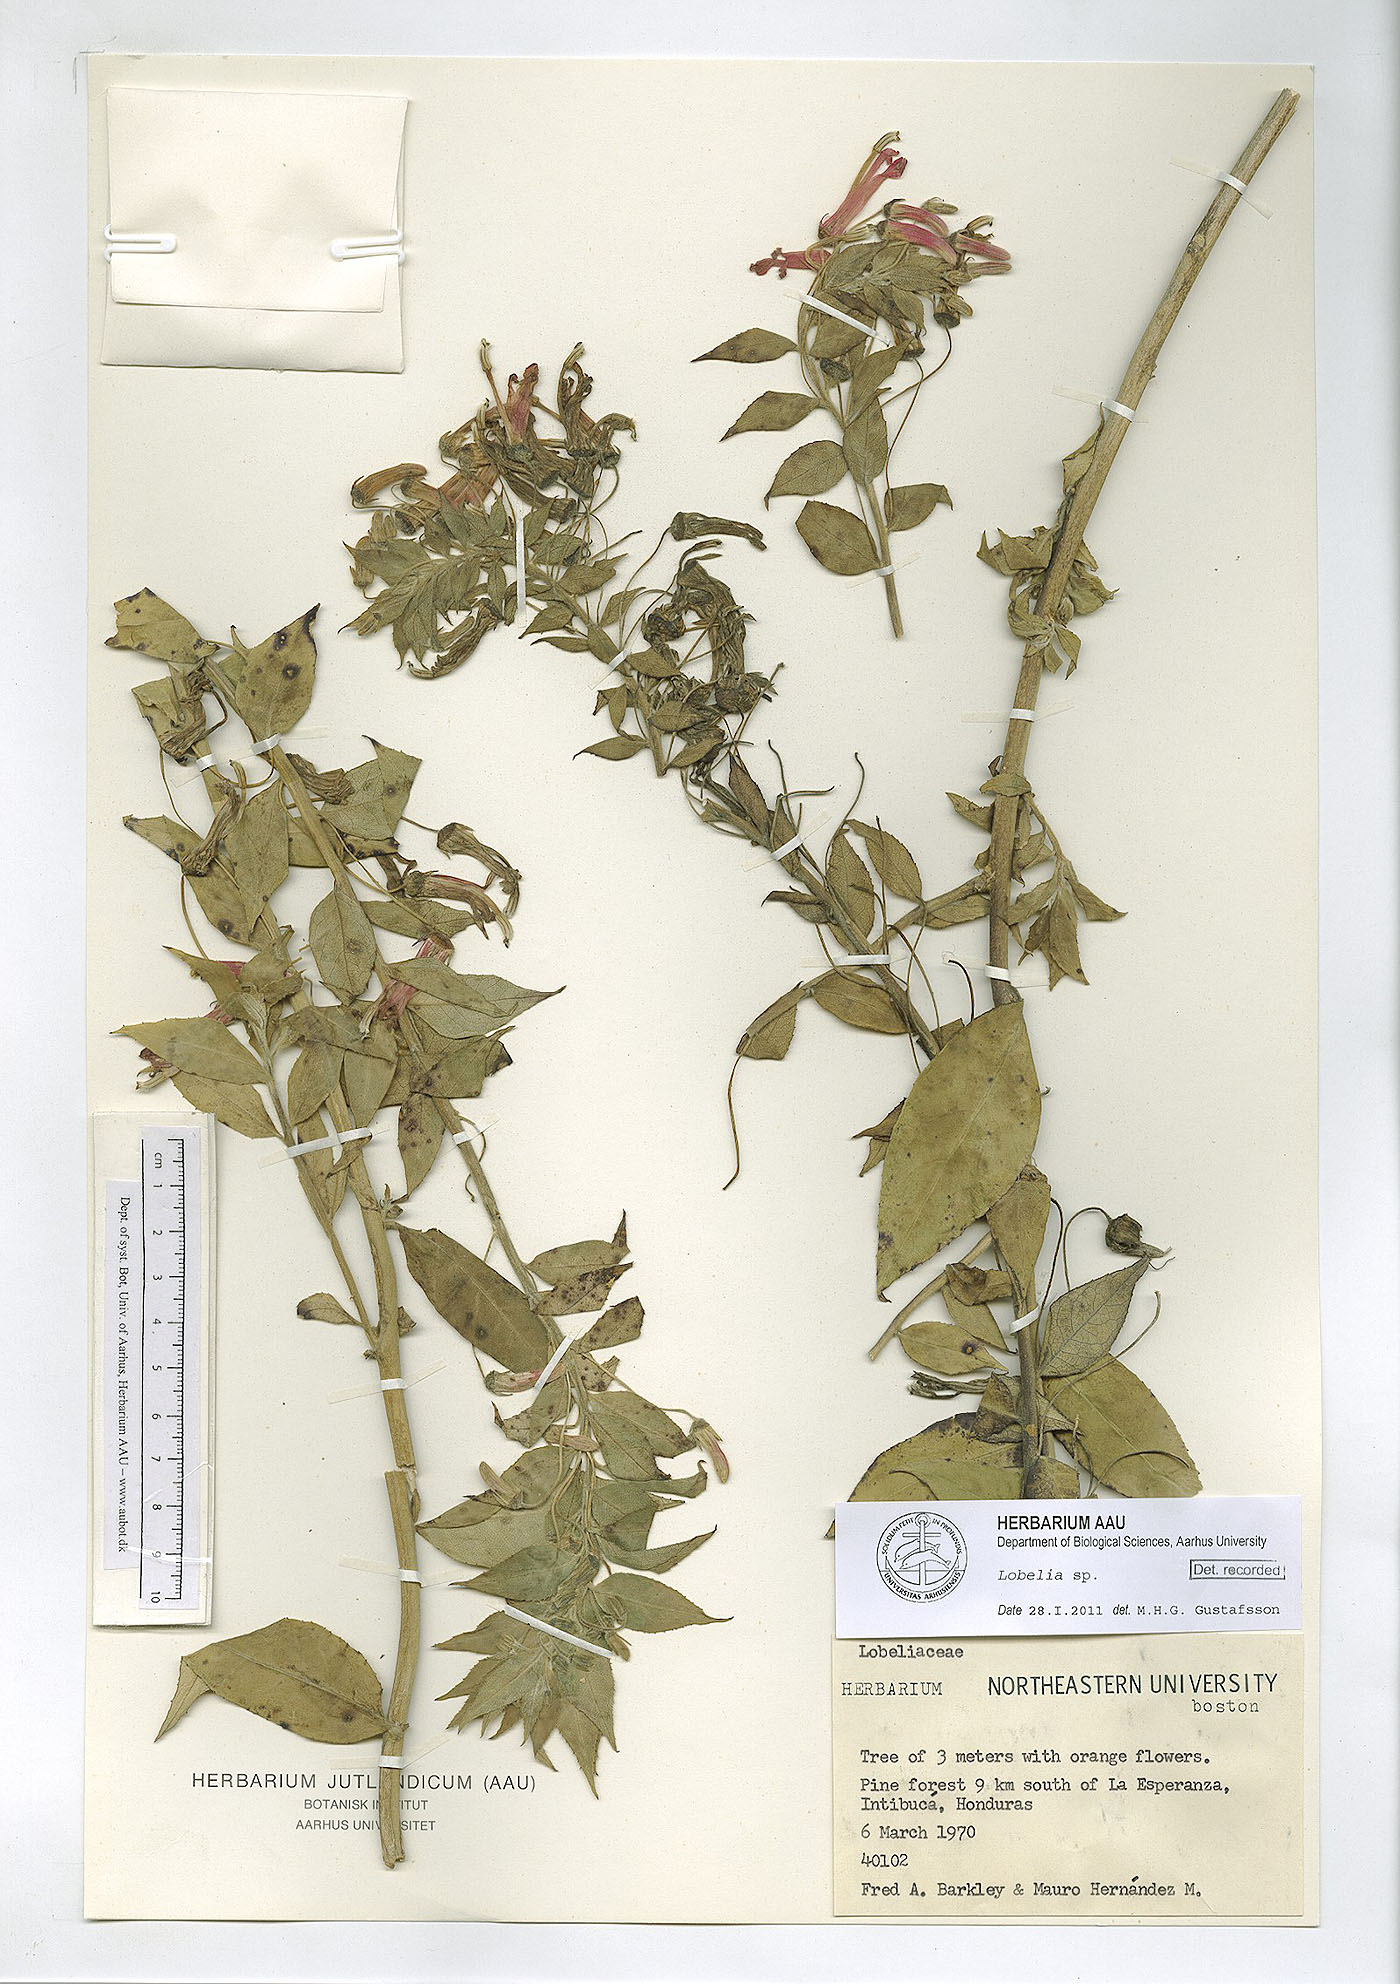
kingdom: Plantae
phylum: Tracheophyta
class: Magnoliopsida
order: Asterales
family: Campanulaceae
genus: Lobelia
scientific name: Lobelia
